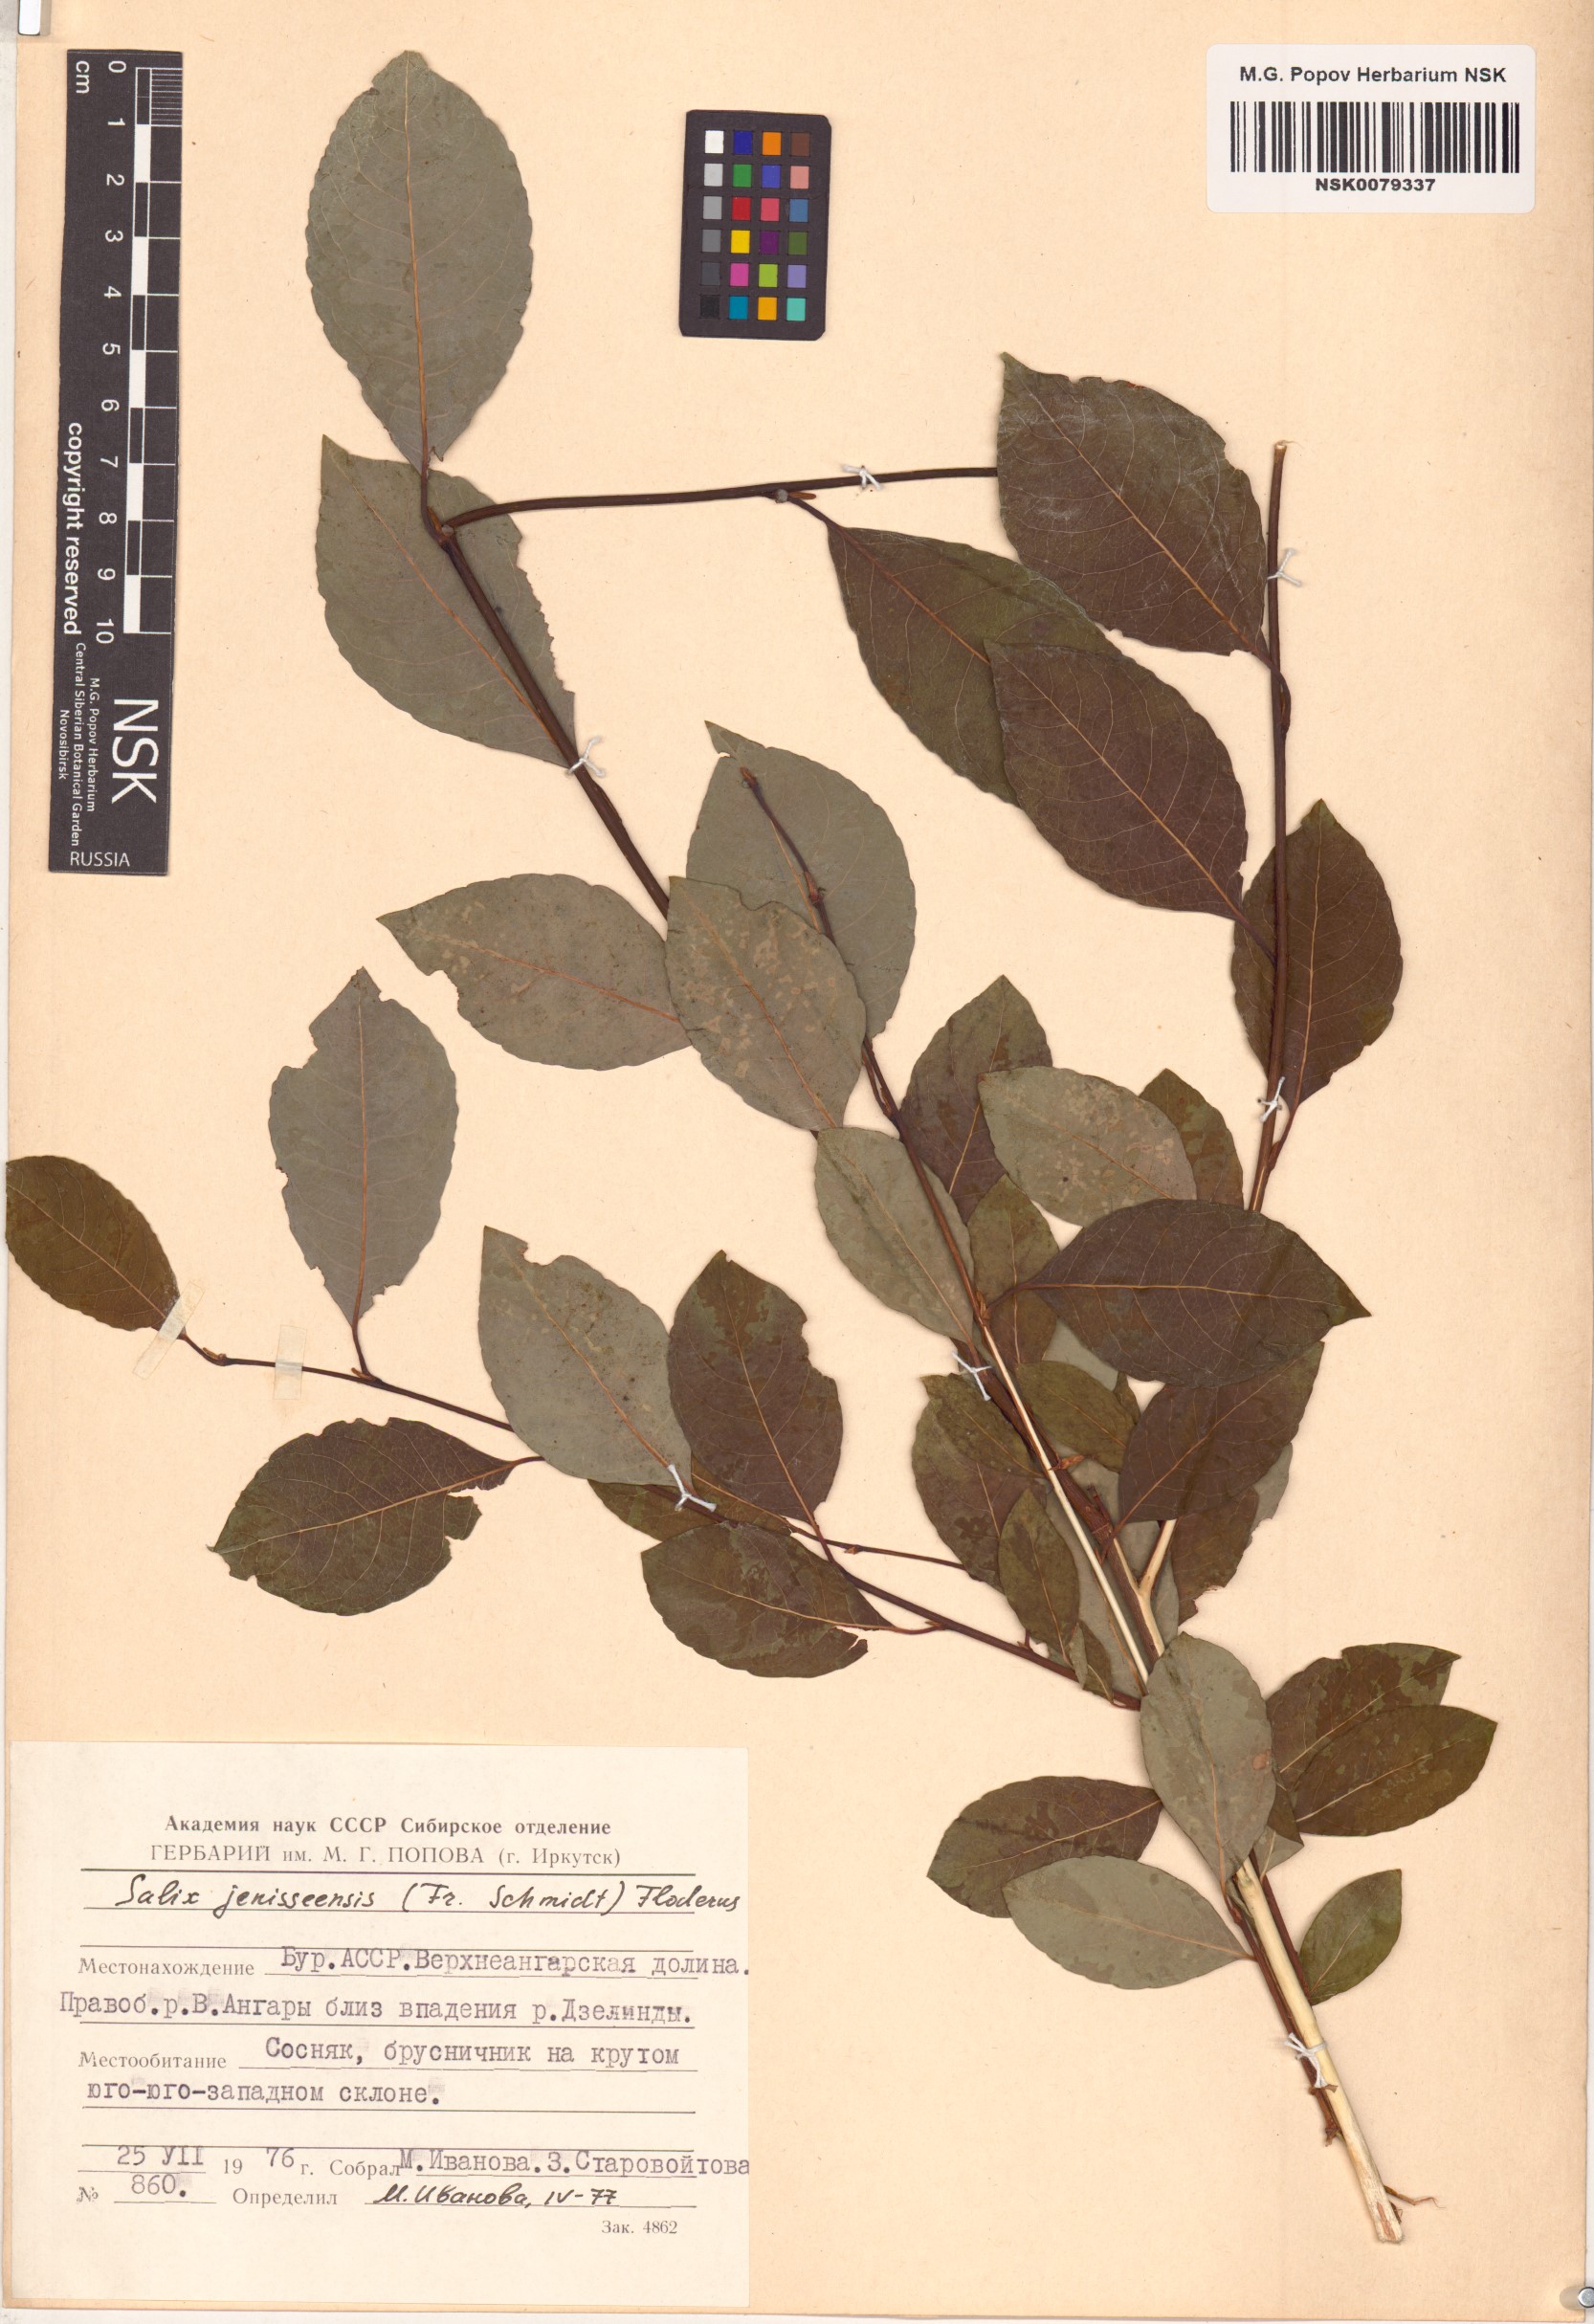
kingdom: Plantae
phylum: Tracheophyta
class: Magnoliopsida
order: Malpighiales
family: Salicaceae
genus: Salix
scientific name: Salix jenisseensis
